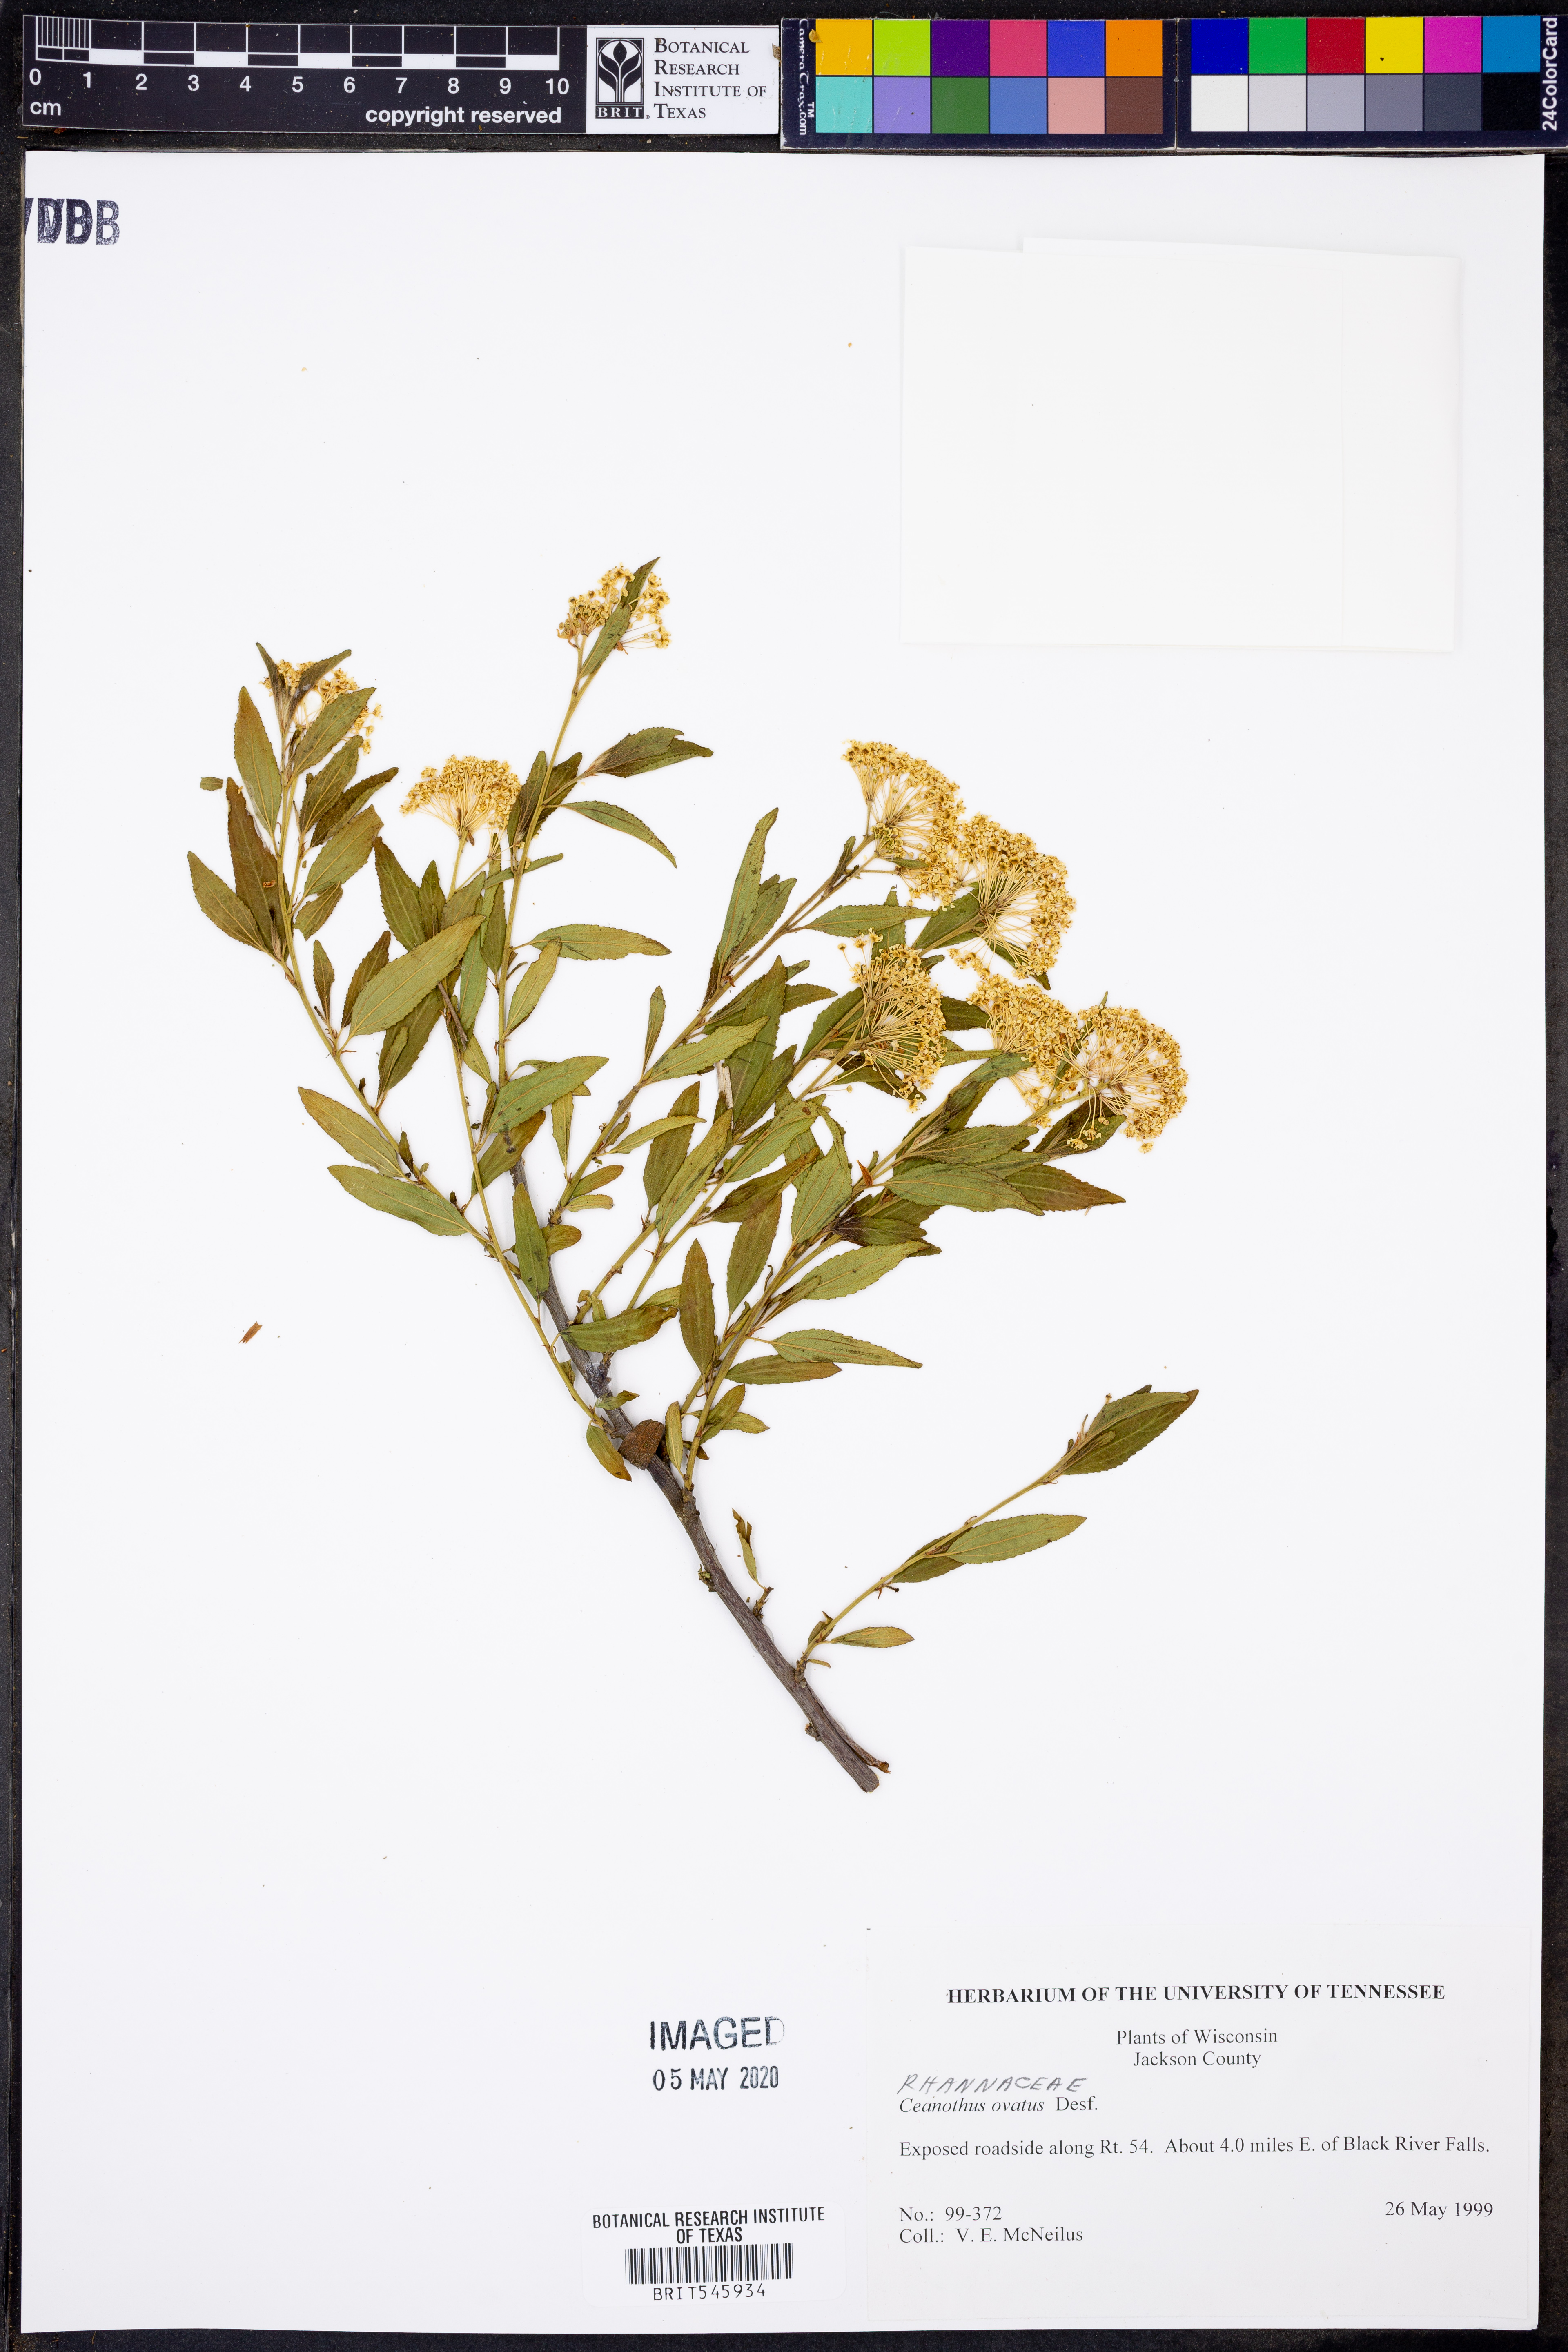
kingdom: Plantae
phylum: Tracheophyta
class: Magnoliopsida
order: Rosales
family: Rhamnaceae
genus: Ceanothus
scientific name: Ceanothus herbaceus
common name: Inland ceanothus
